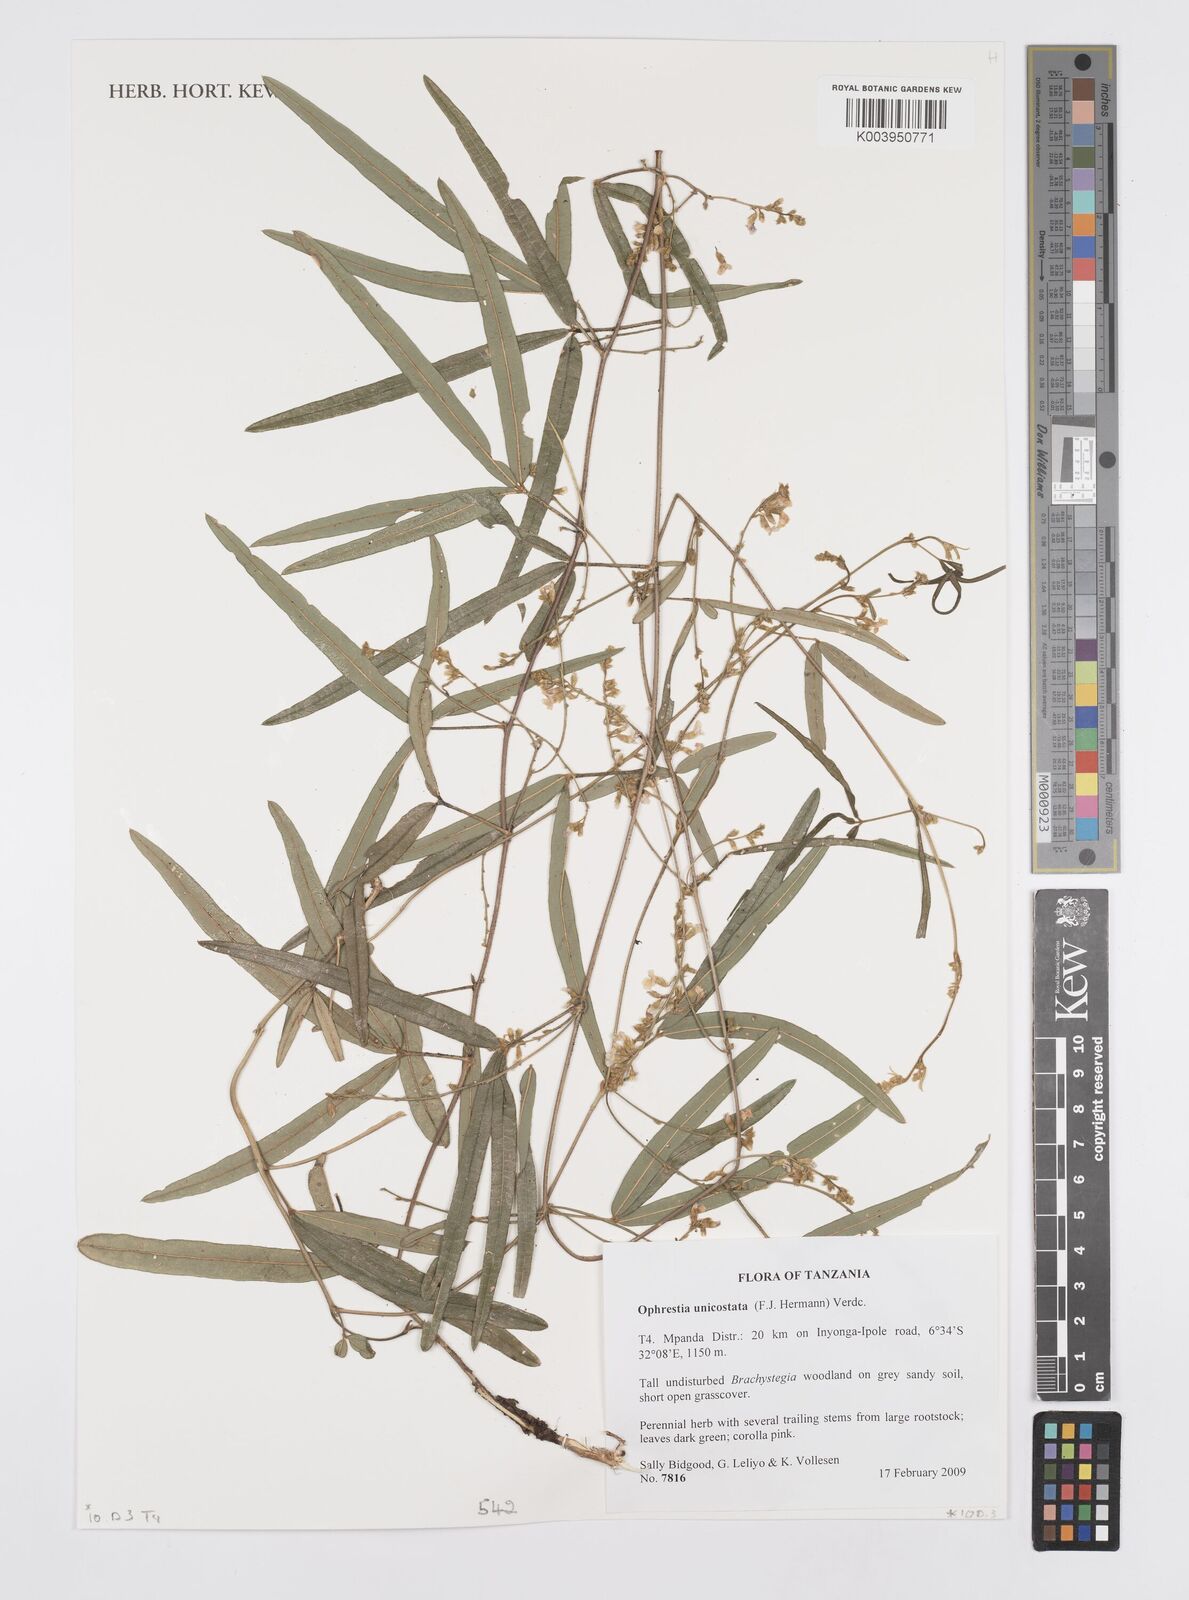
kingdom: Plantae
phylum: Tracheophyta
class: Magnoliopsida
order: Fabales
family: Fabaceae
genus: Ophrestia
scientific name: Ophrestia unicostata
